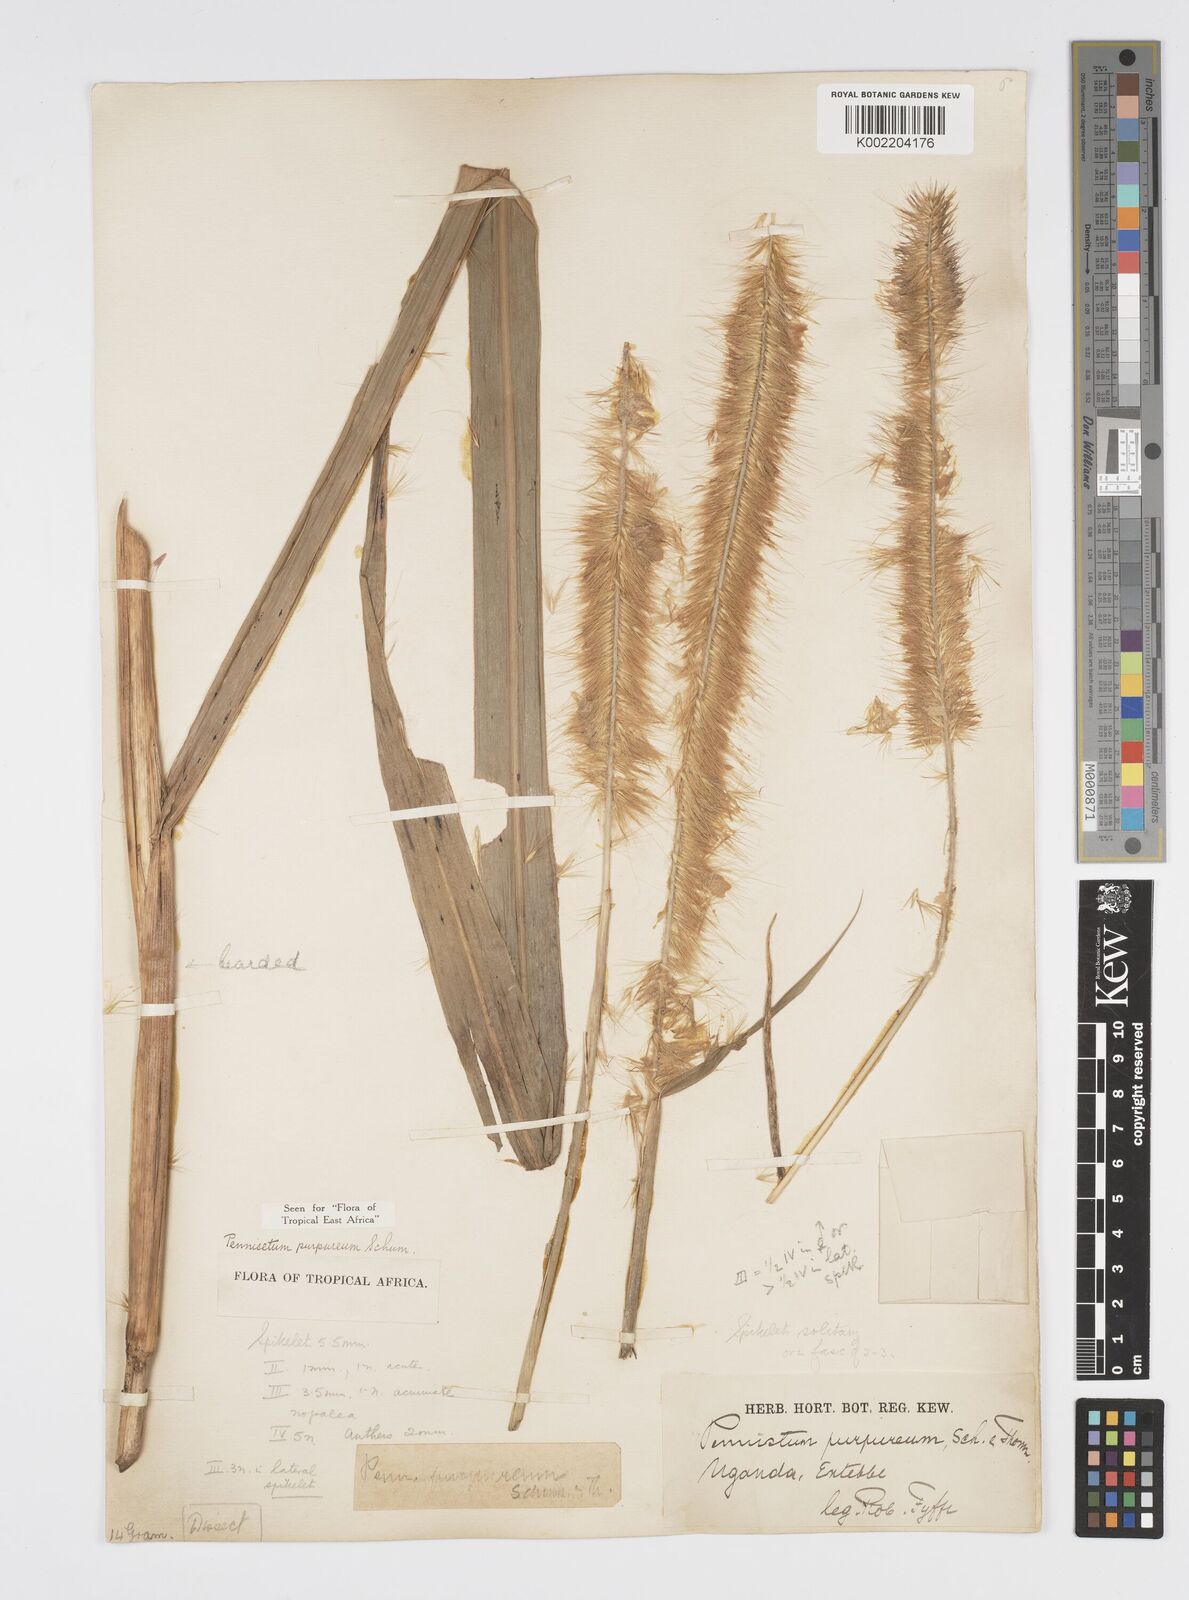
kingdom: Plantae
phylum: Tracheophyta
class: Liliopsida
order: Poales
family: Poaceae
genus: Cenchrus
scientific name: Cenchrus purpureus
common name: Elephant grass
